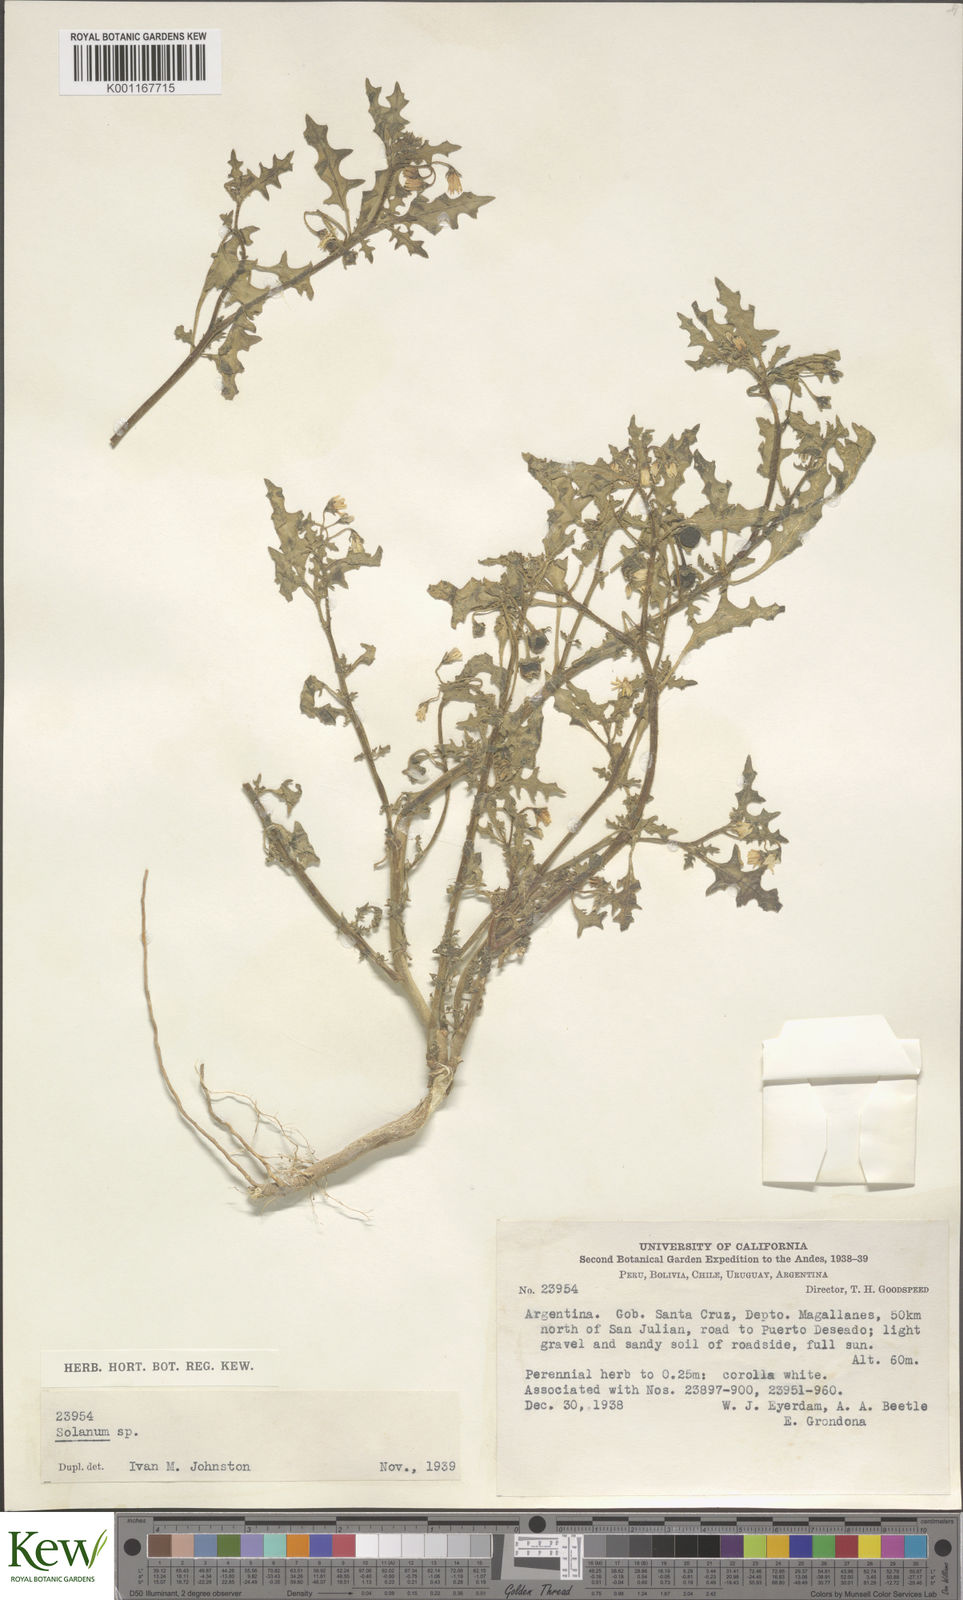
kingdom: Plantae
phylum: Tracheophyta
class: Magnoliopsida
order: Solanales
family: Solanaceae
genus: Solanum
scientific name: Solanum triflorum
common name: Small nightshade
